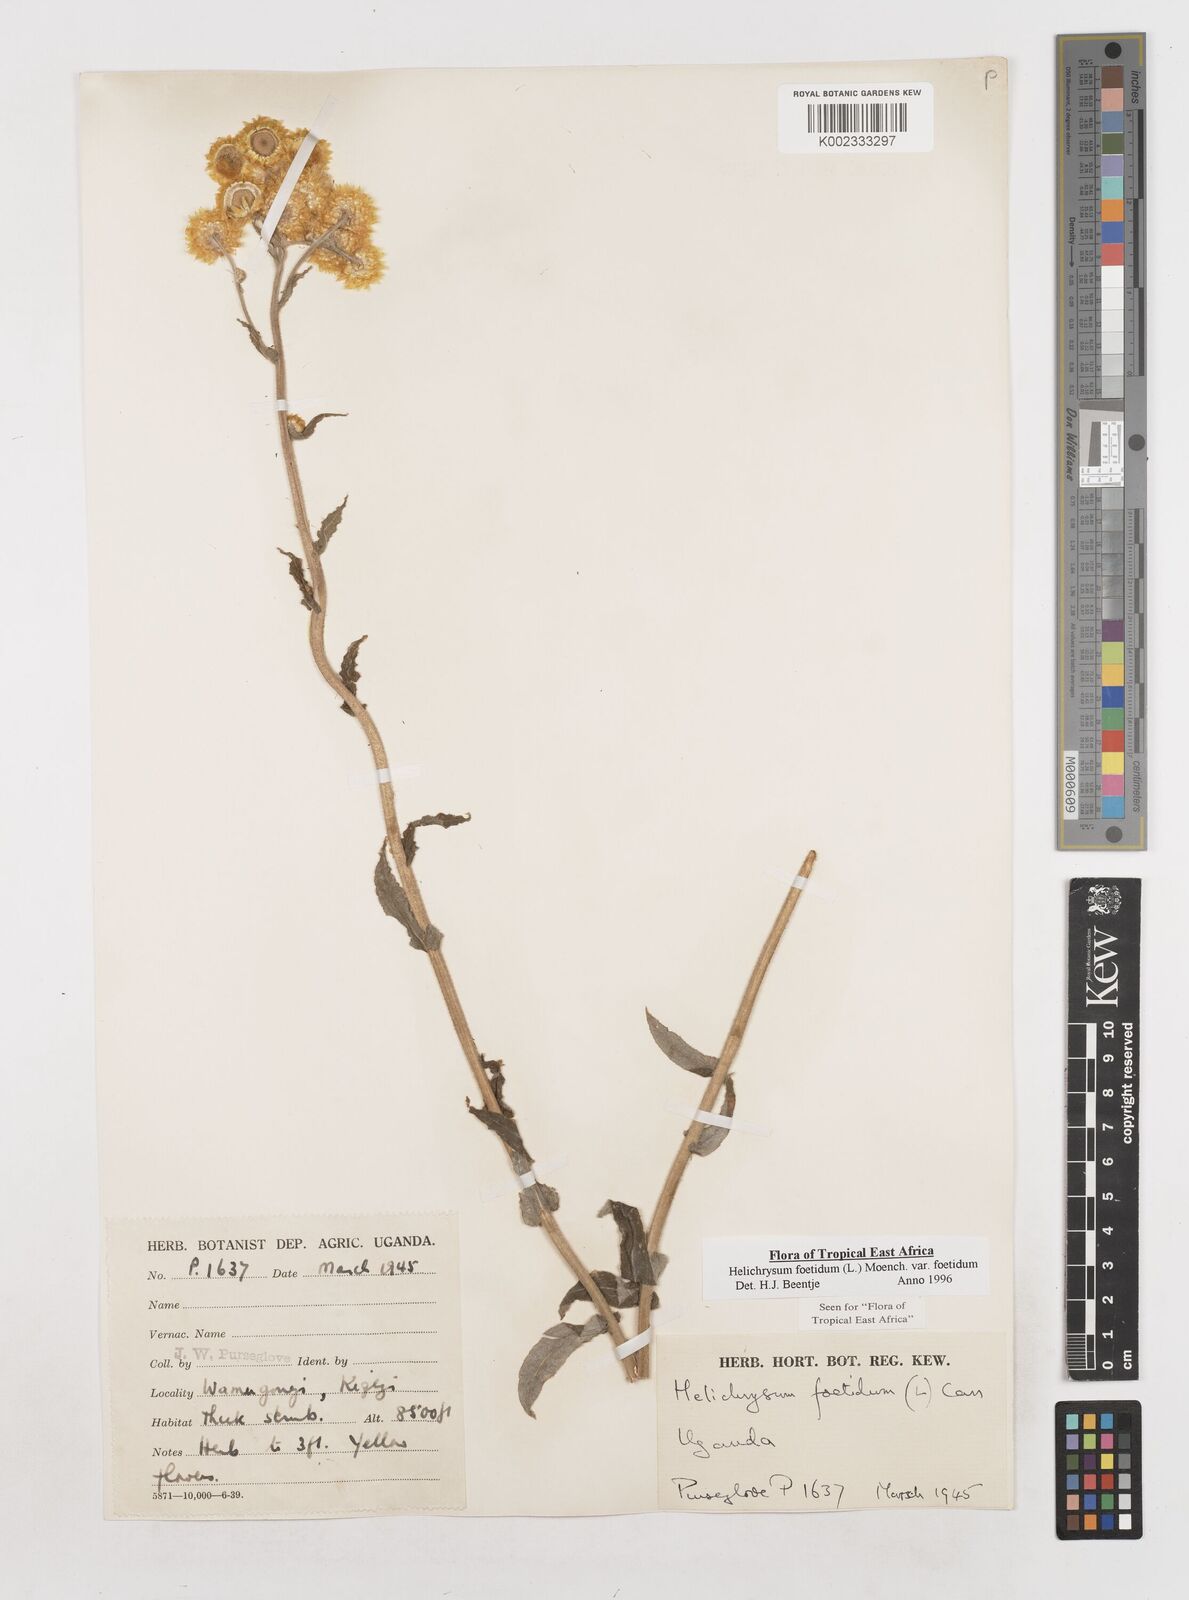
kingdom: Plantae
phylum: Tracheophyta
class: Magnoliopsida
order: Asterales
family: Asteraceae
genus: Helichrysum
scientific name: Helichrysum foetidum
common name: Stinking everlasting
